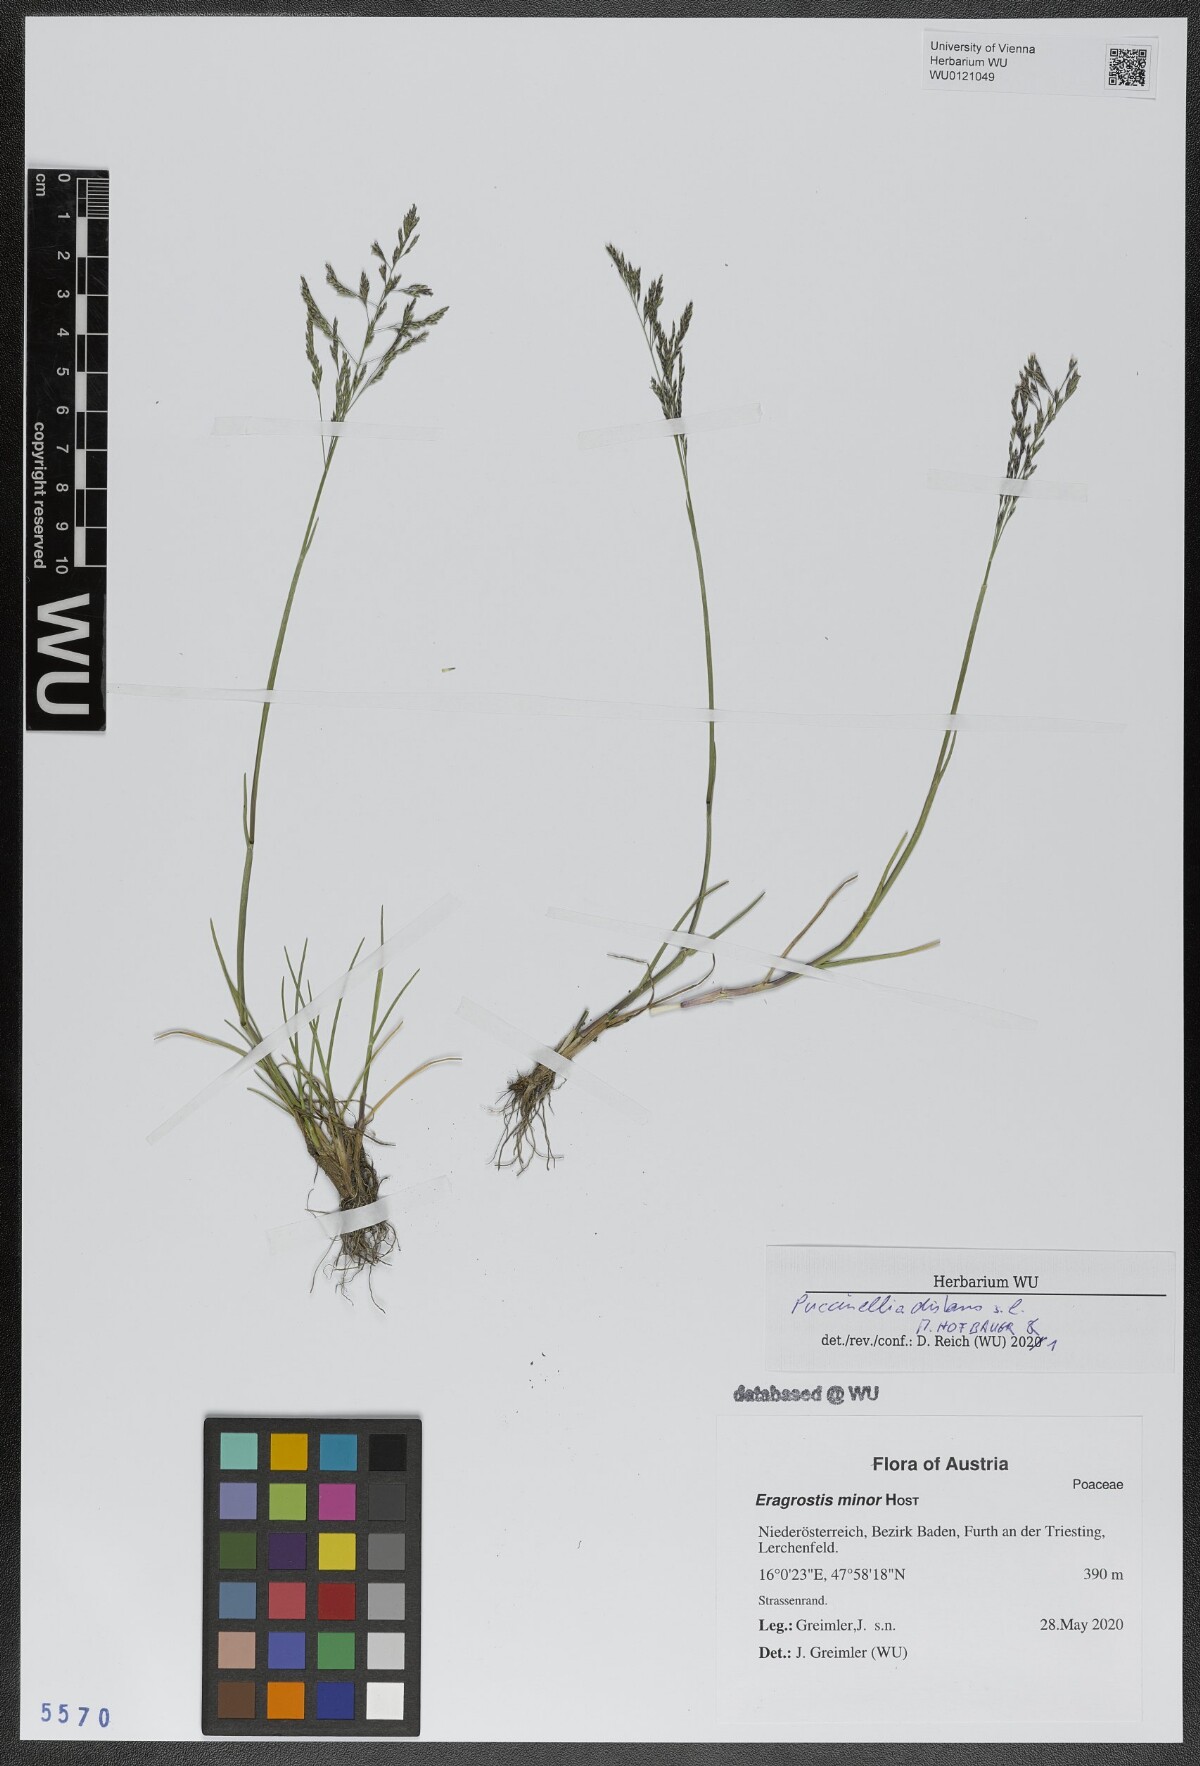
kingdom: Plantae
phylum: Tracheophyta
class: Liliopsida
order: Poales
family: Poaceae
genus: Puccinellia
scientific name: Puccinellia distans
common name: Weeping alkaligrass
